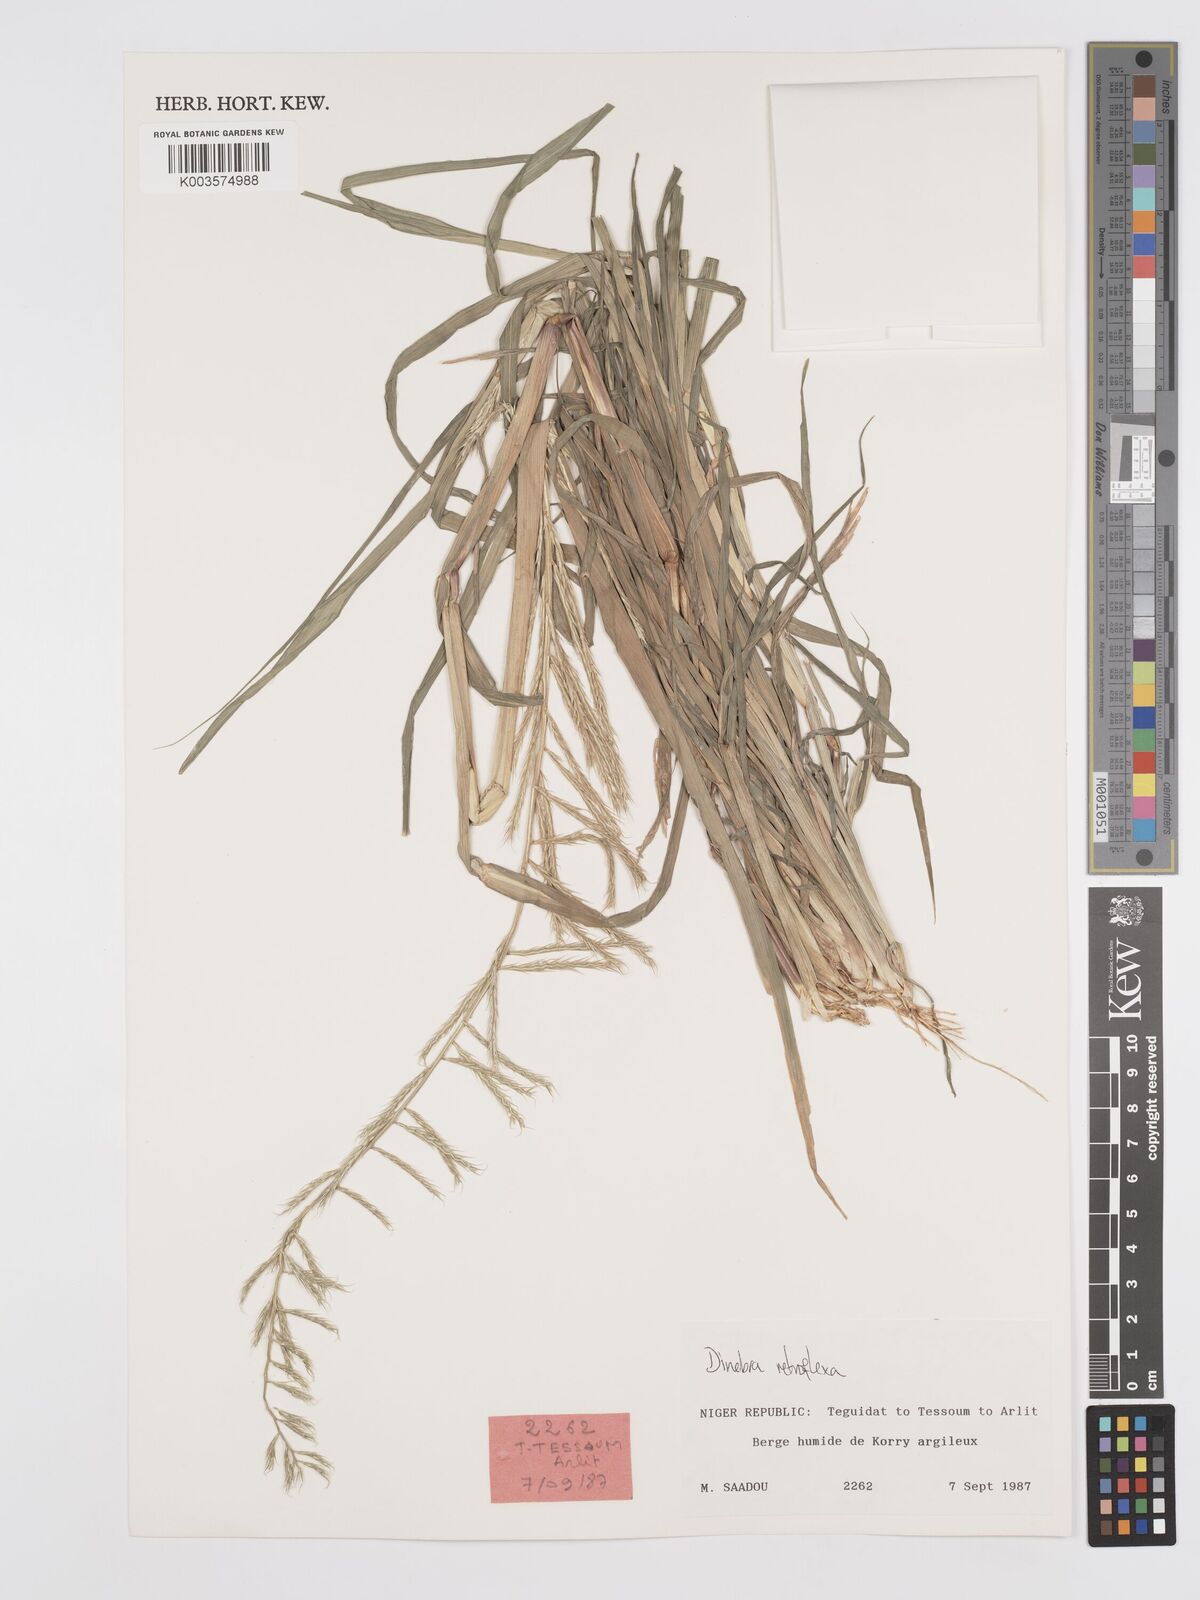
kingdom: Plantae
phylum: Tracheophyta
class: Liliopsida
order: Poales
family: Poaceae
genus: Dinebra
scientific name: Dinebra retroflexa
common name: Viper grass
